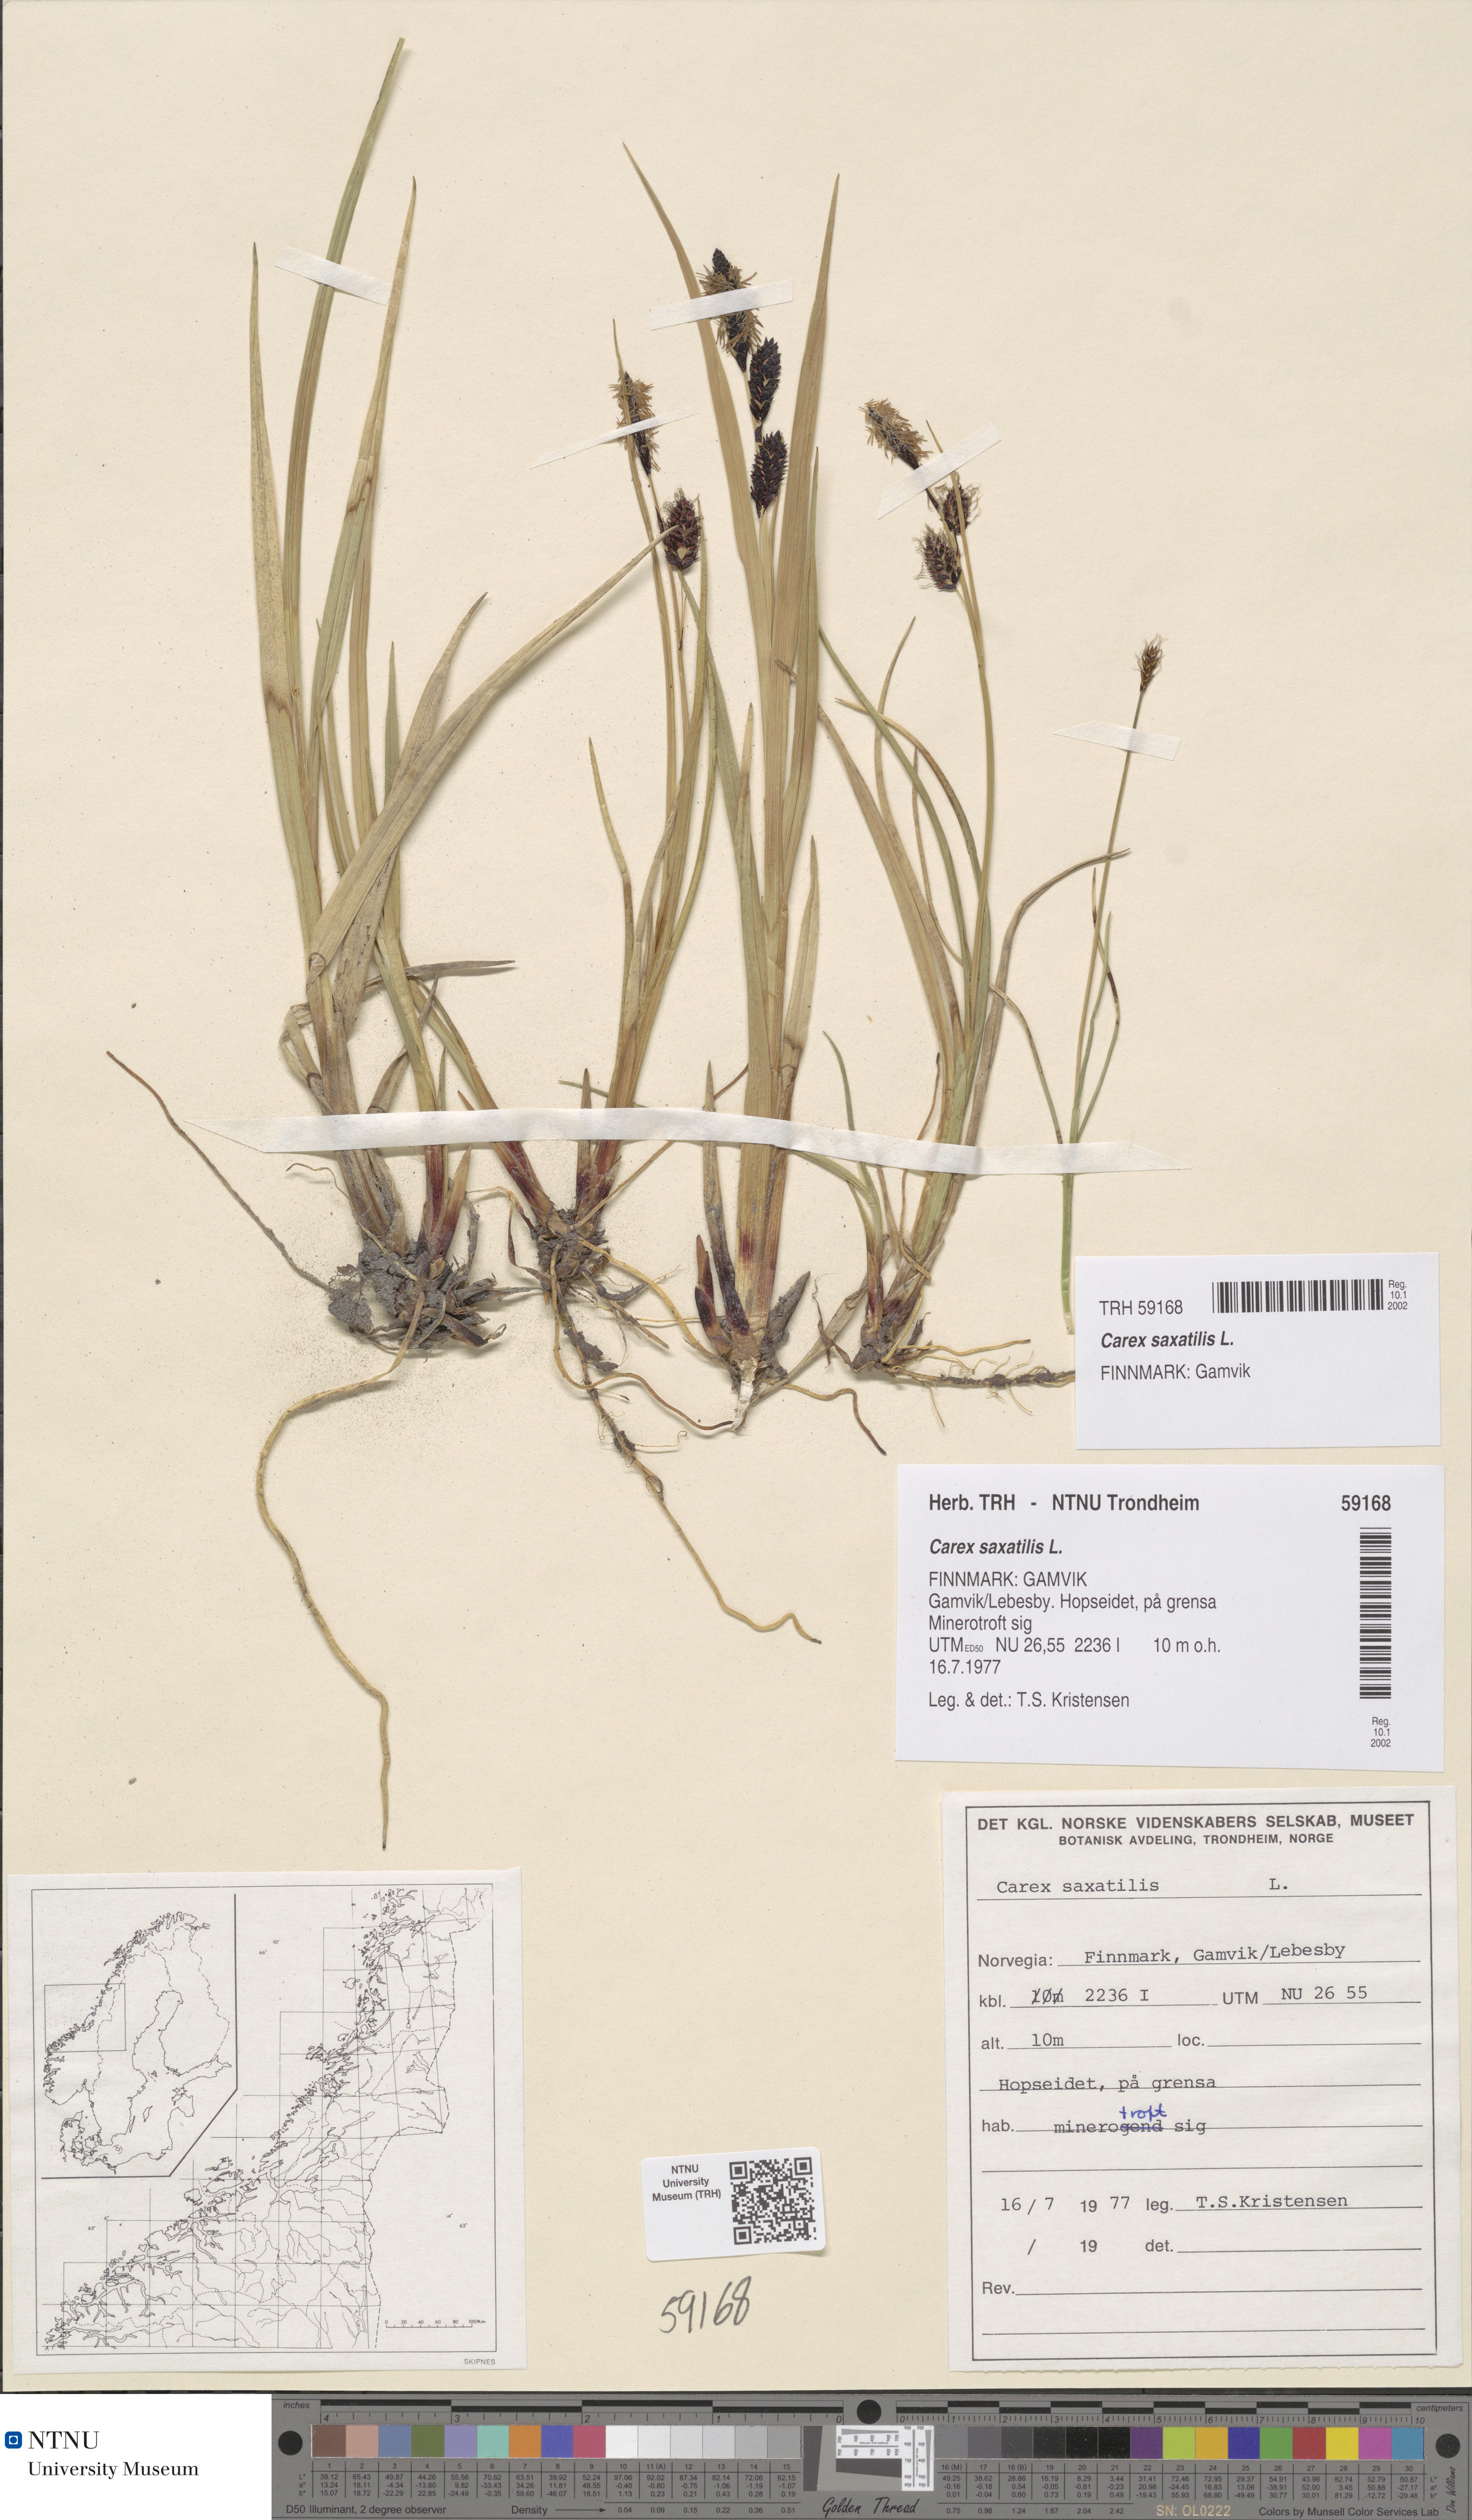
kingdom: Plantae
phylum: Tracheophyta
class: Liliopsida
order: Poales
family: Cyperaceae
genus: Carex
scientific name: Carex saxatilis
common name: Russet sedge
